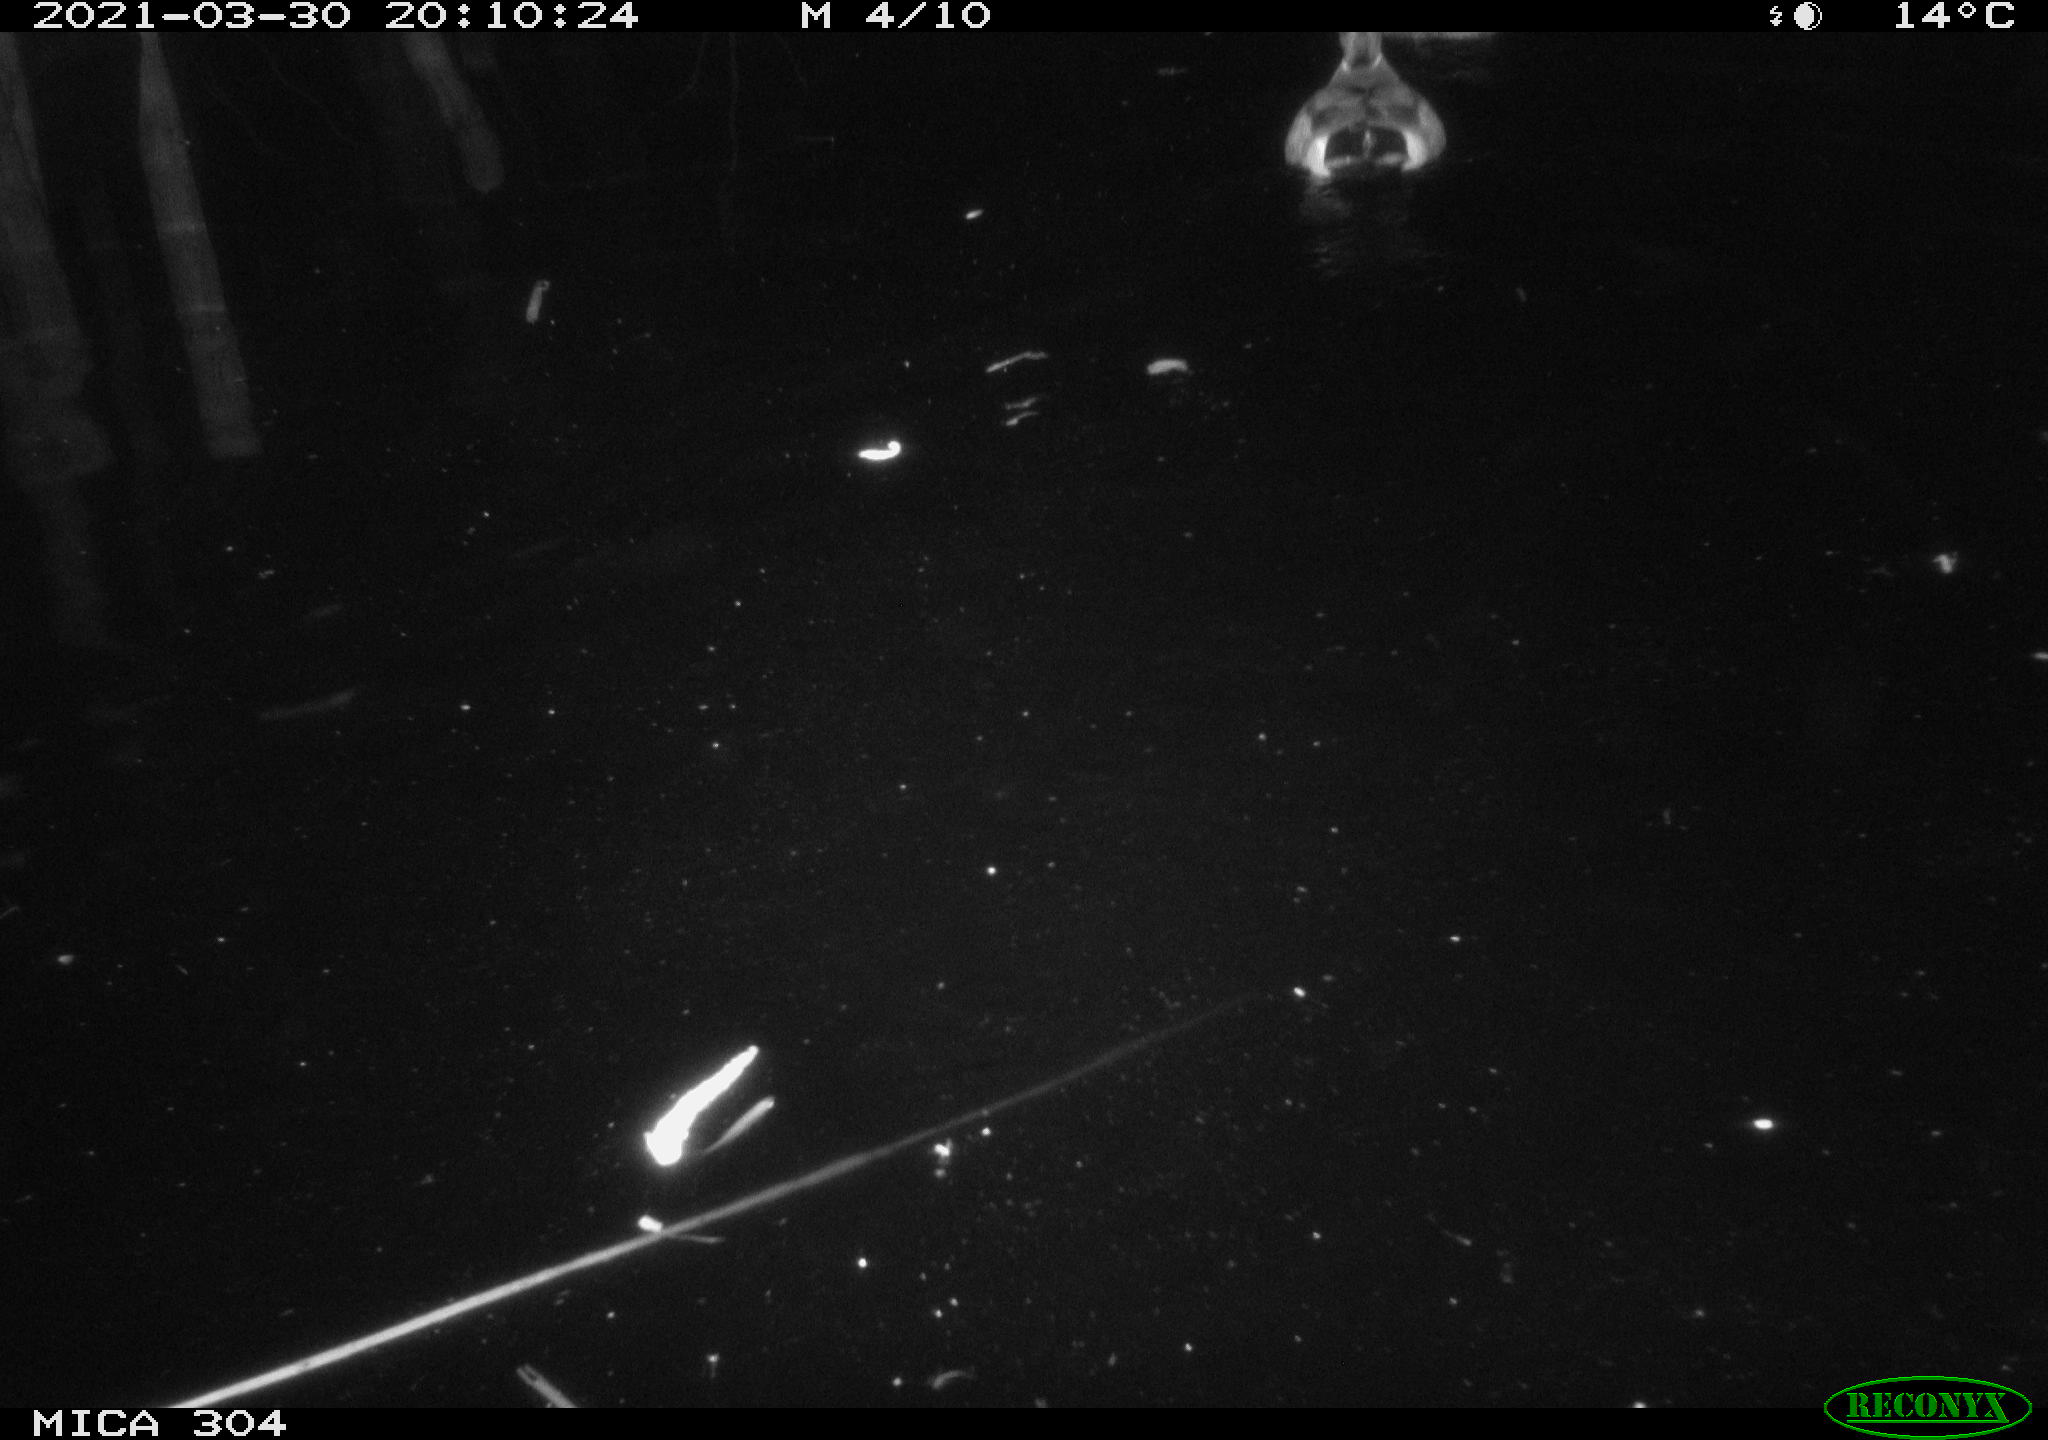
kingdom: Animalia
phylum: Chordata
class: Aves
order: Anseriformes
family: Anatidae
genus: Anas
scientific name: Anas platyrhynchos
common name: Mallard
